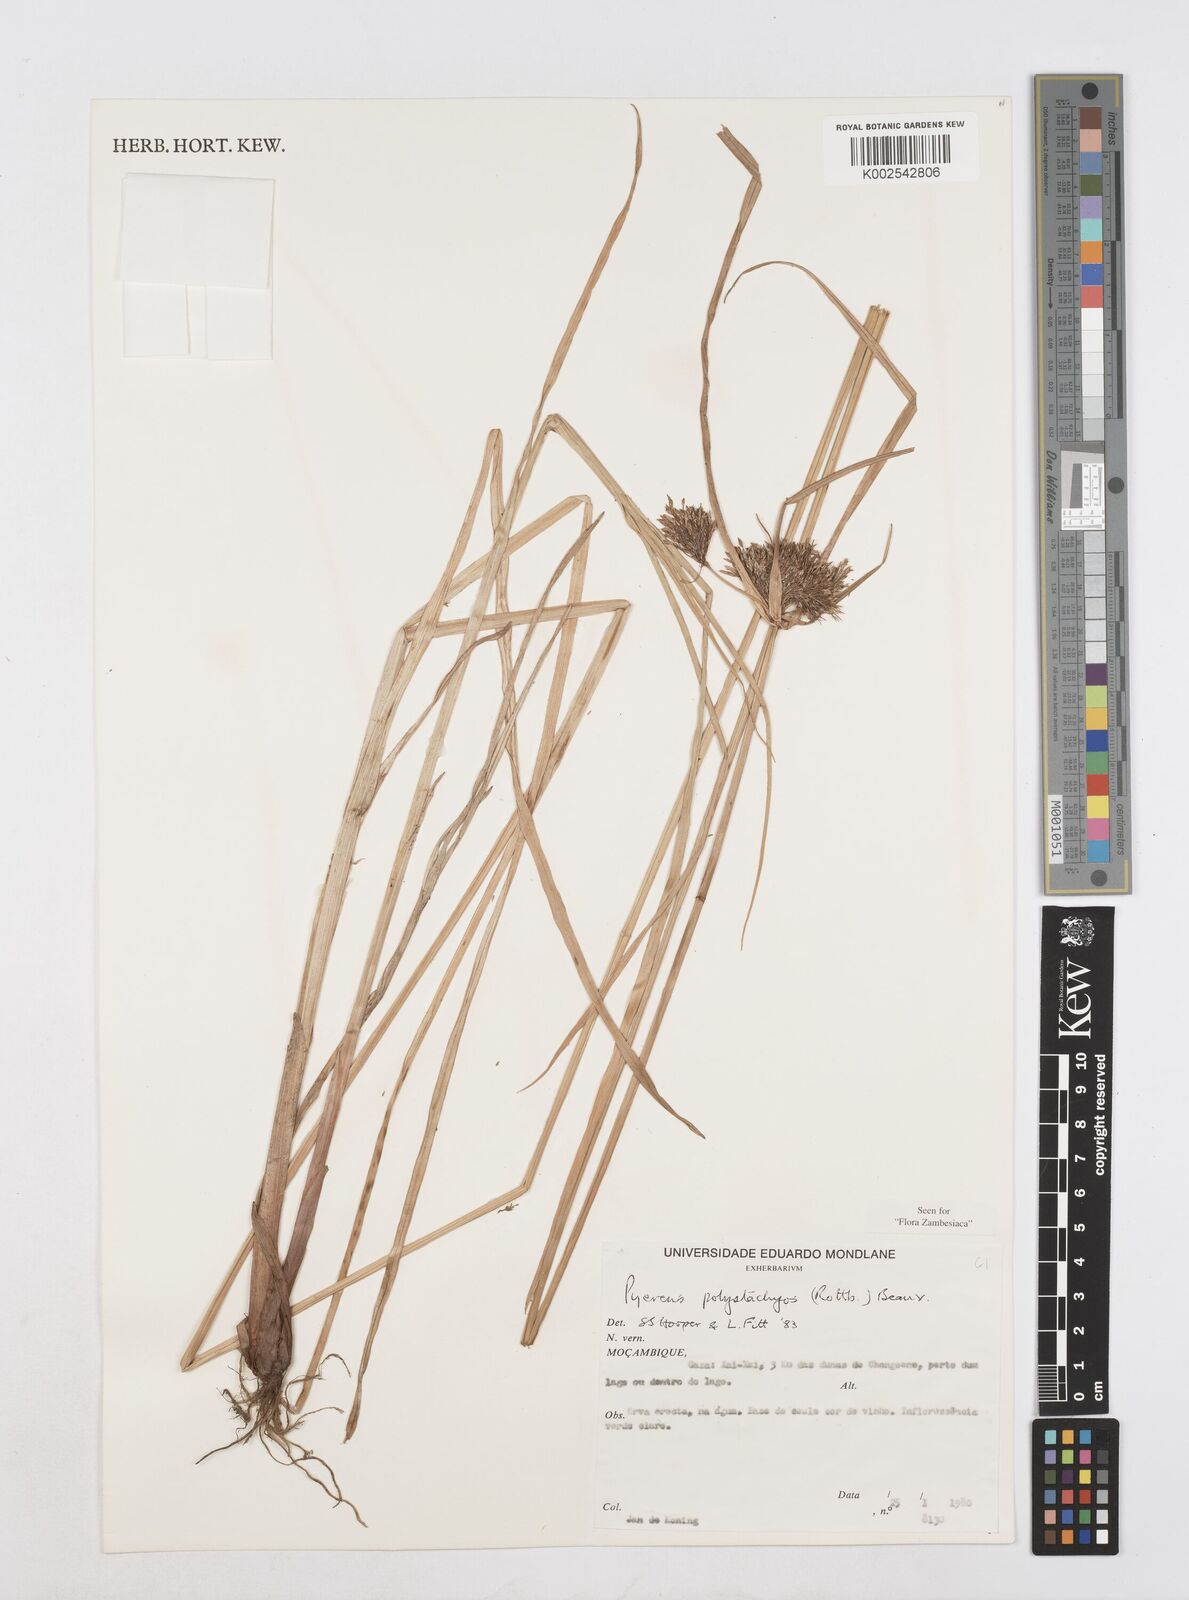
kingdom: Plantae
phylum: Tracheophyta
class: Liliopsida
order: Poales
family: Cyperaceae
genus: Cyperus
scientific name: Cyperus polystachyos
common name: Bunchy flat sedge
